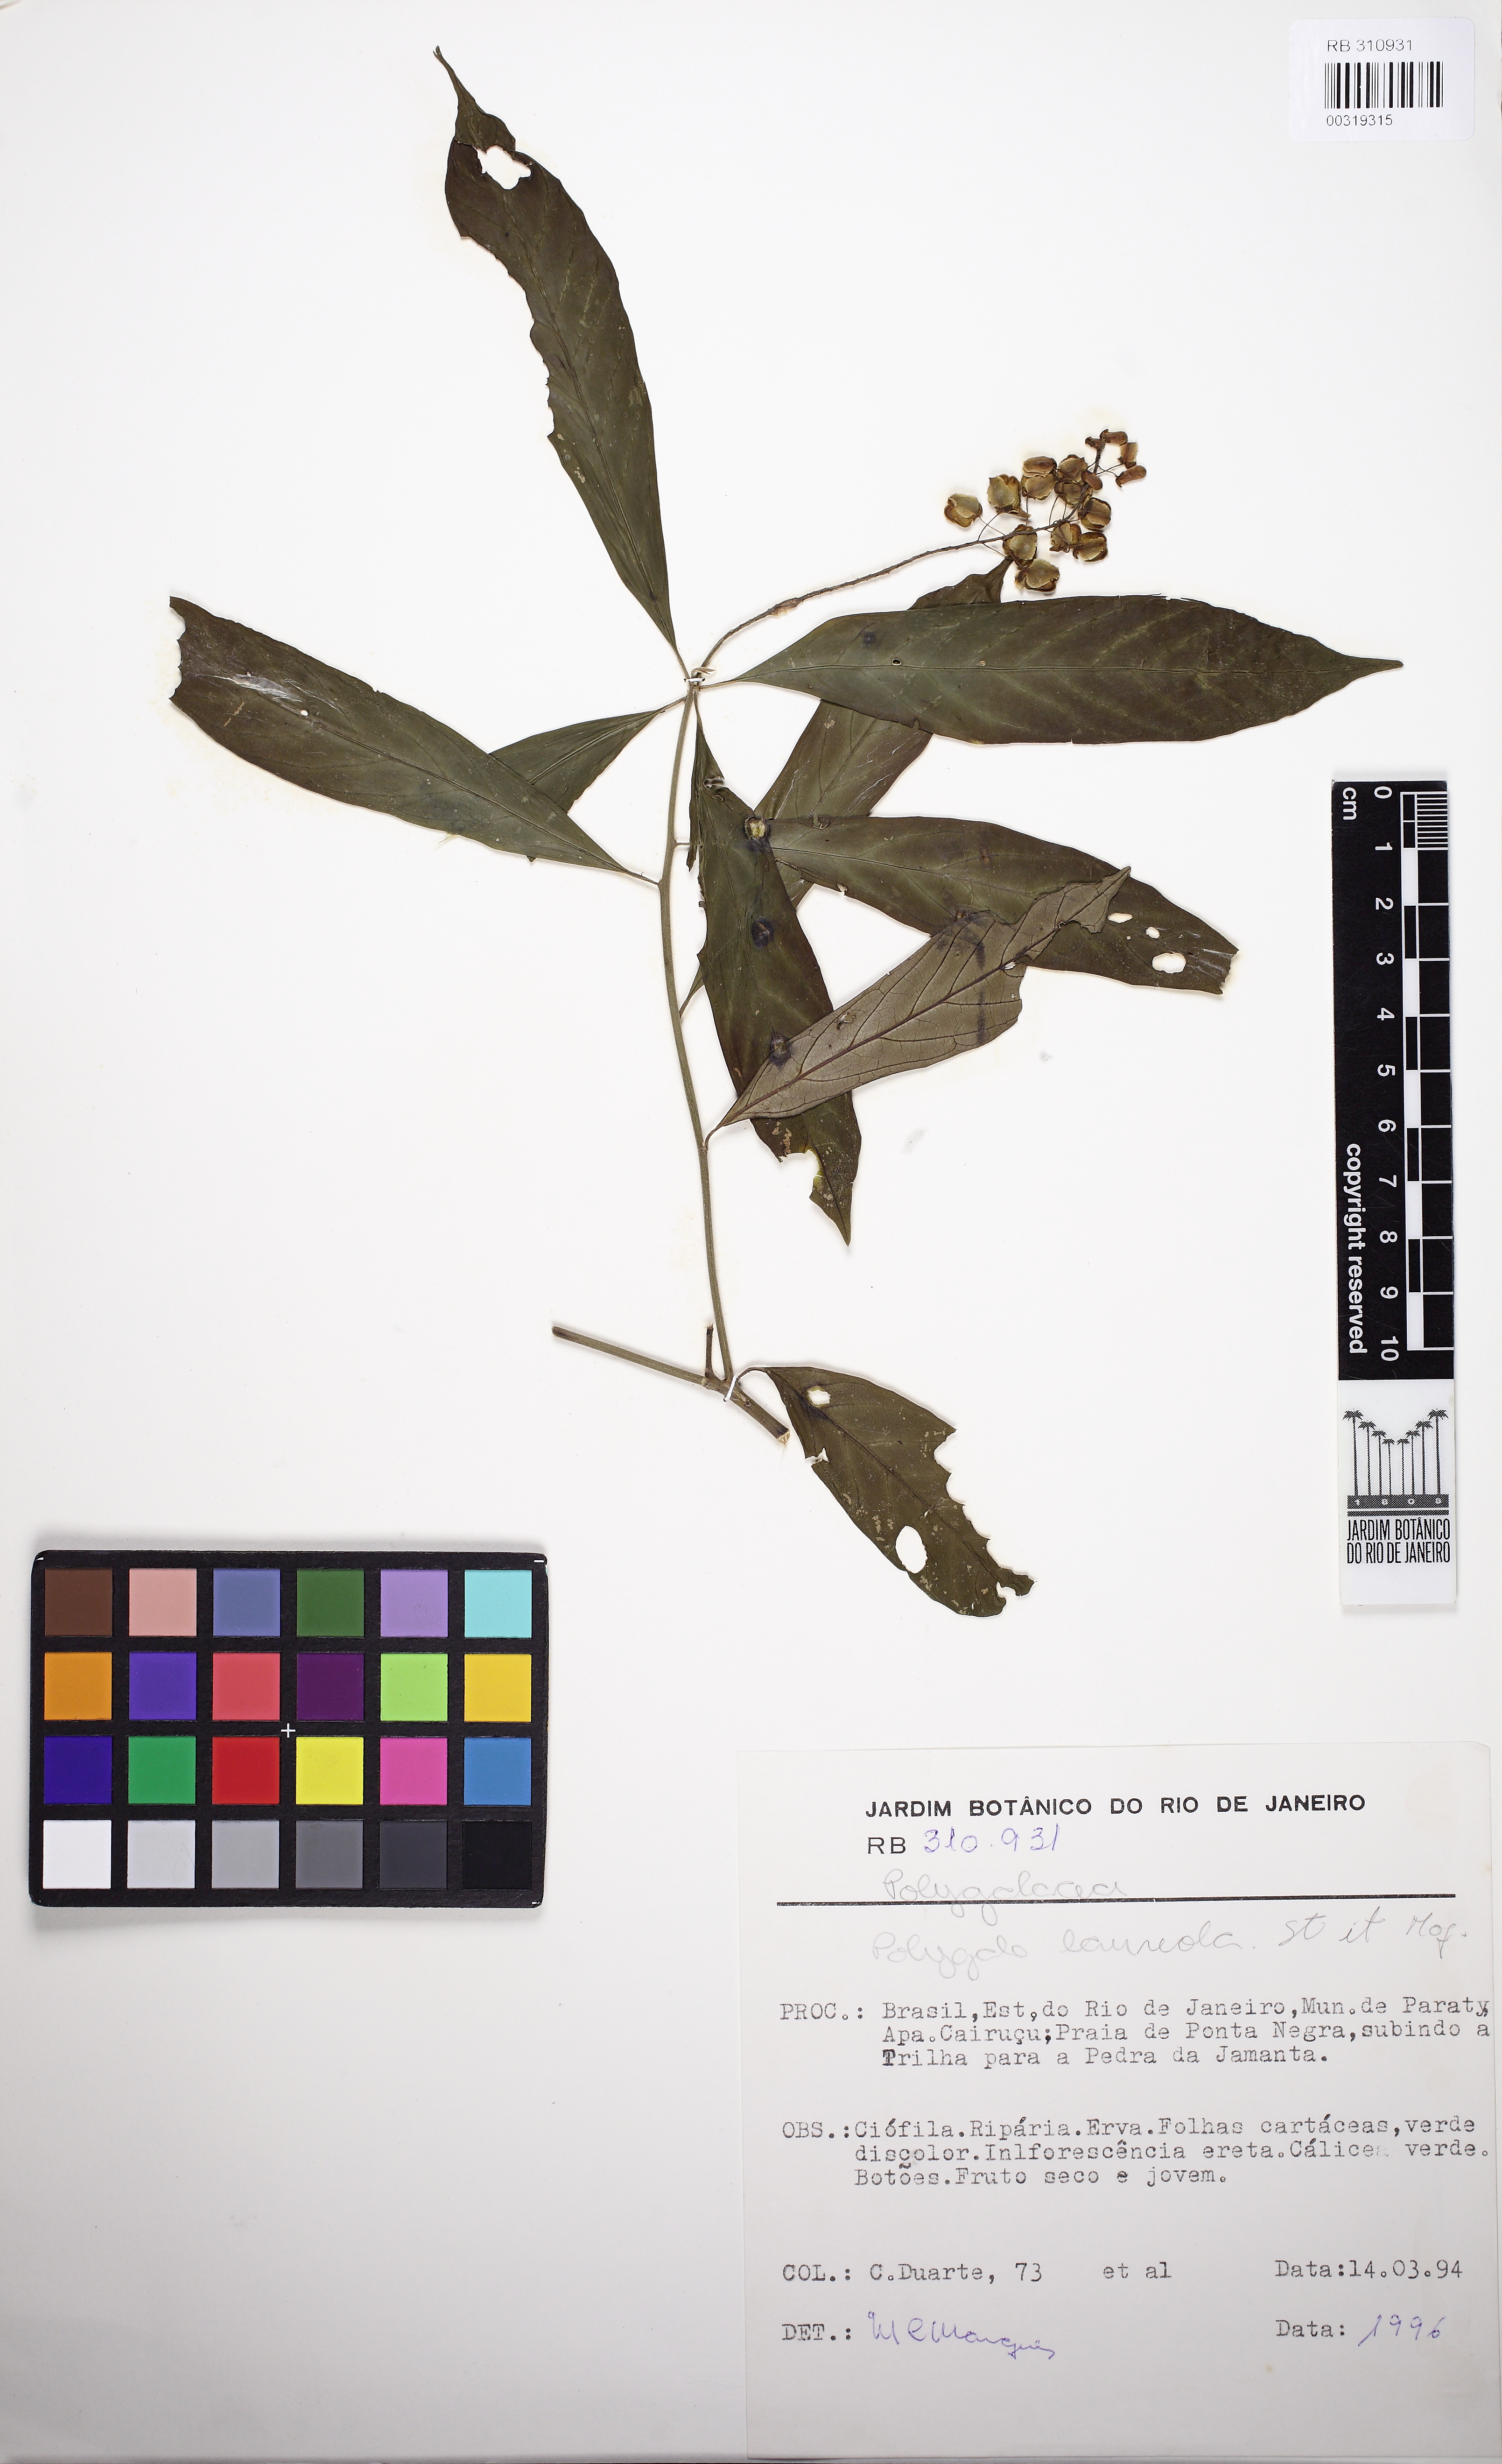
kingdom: Plantae
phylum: Tracheophyta
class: Magnoliopsida
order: Fabales
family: Polygalaceae
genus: Caamembeca
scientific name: Caamembeca salicifolia
